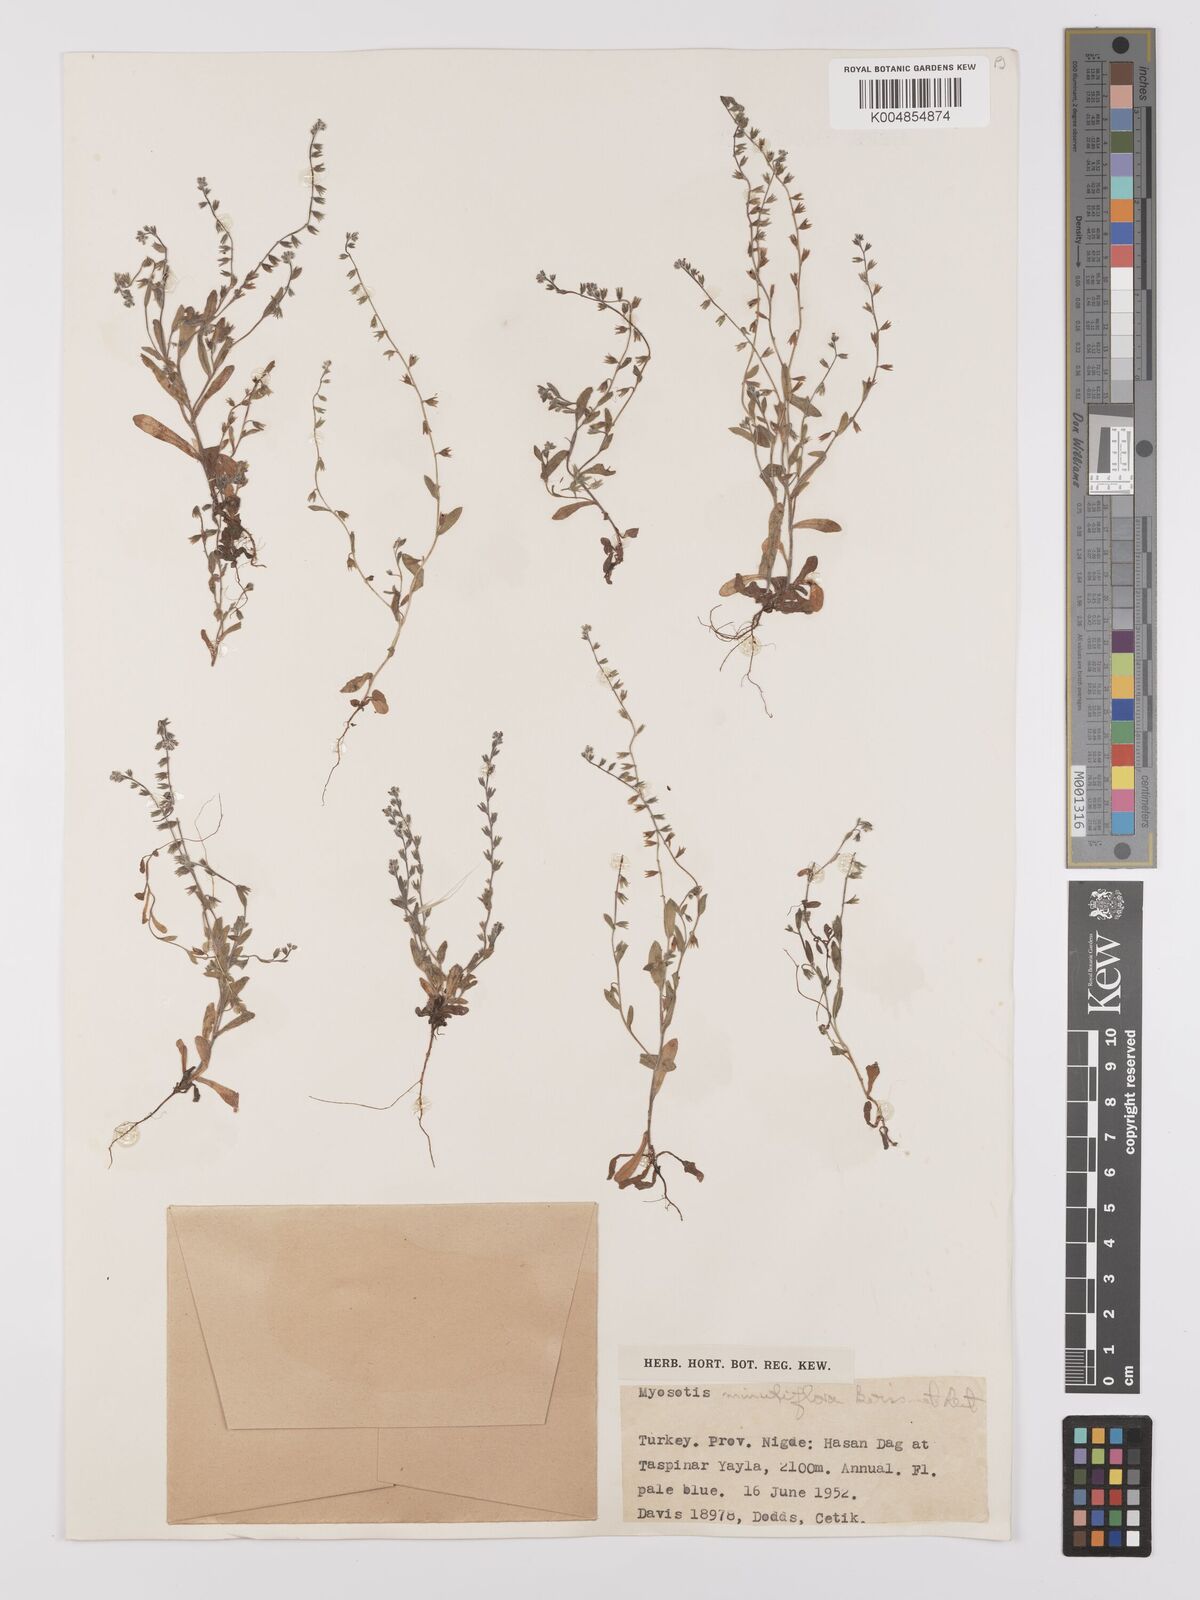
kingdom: Plantae
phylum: Tracheophyta
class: Magnoliopsida
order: Boraginales
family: Boraginaceae
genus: Myosotis
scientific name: Myosotis minutiflora
